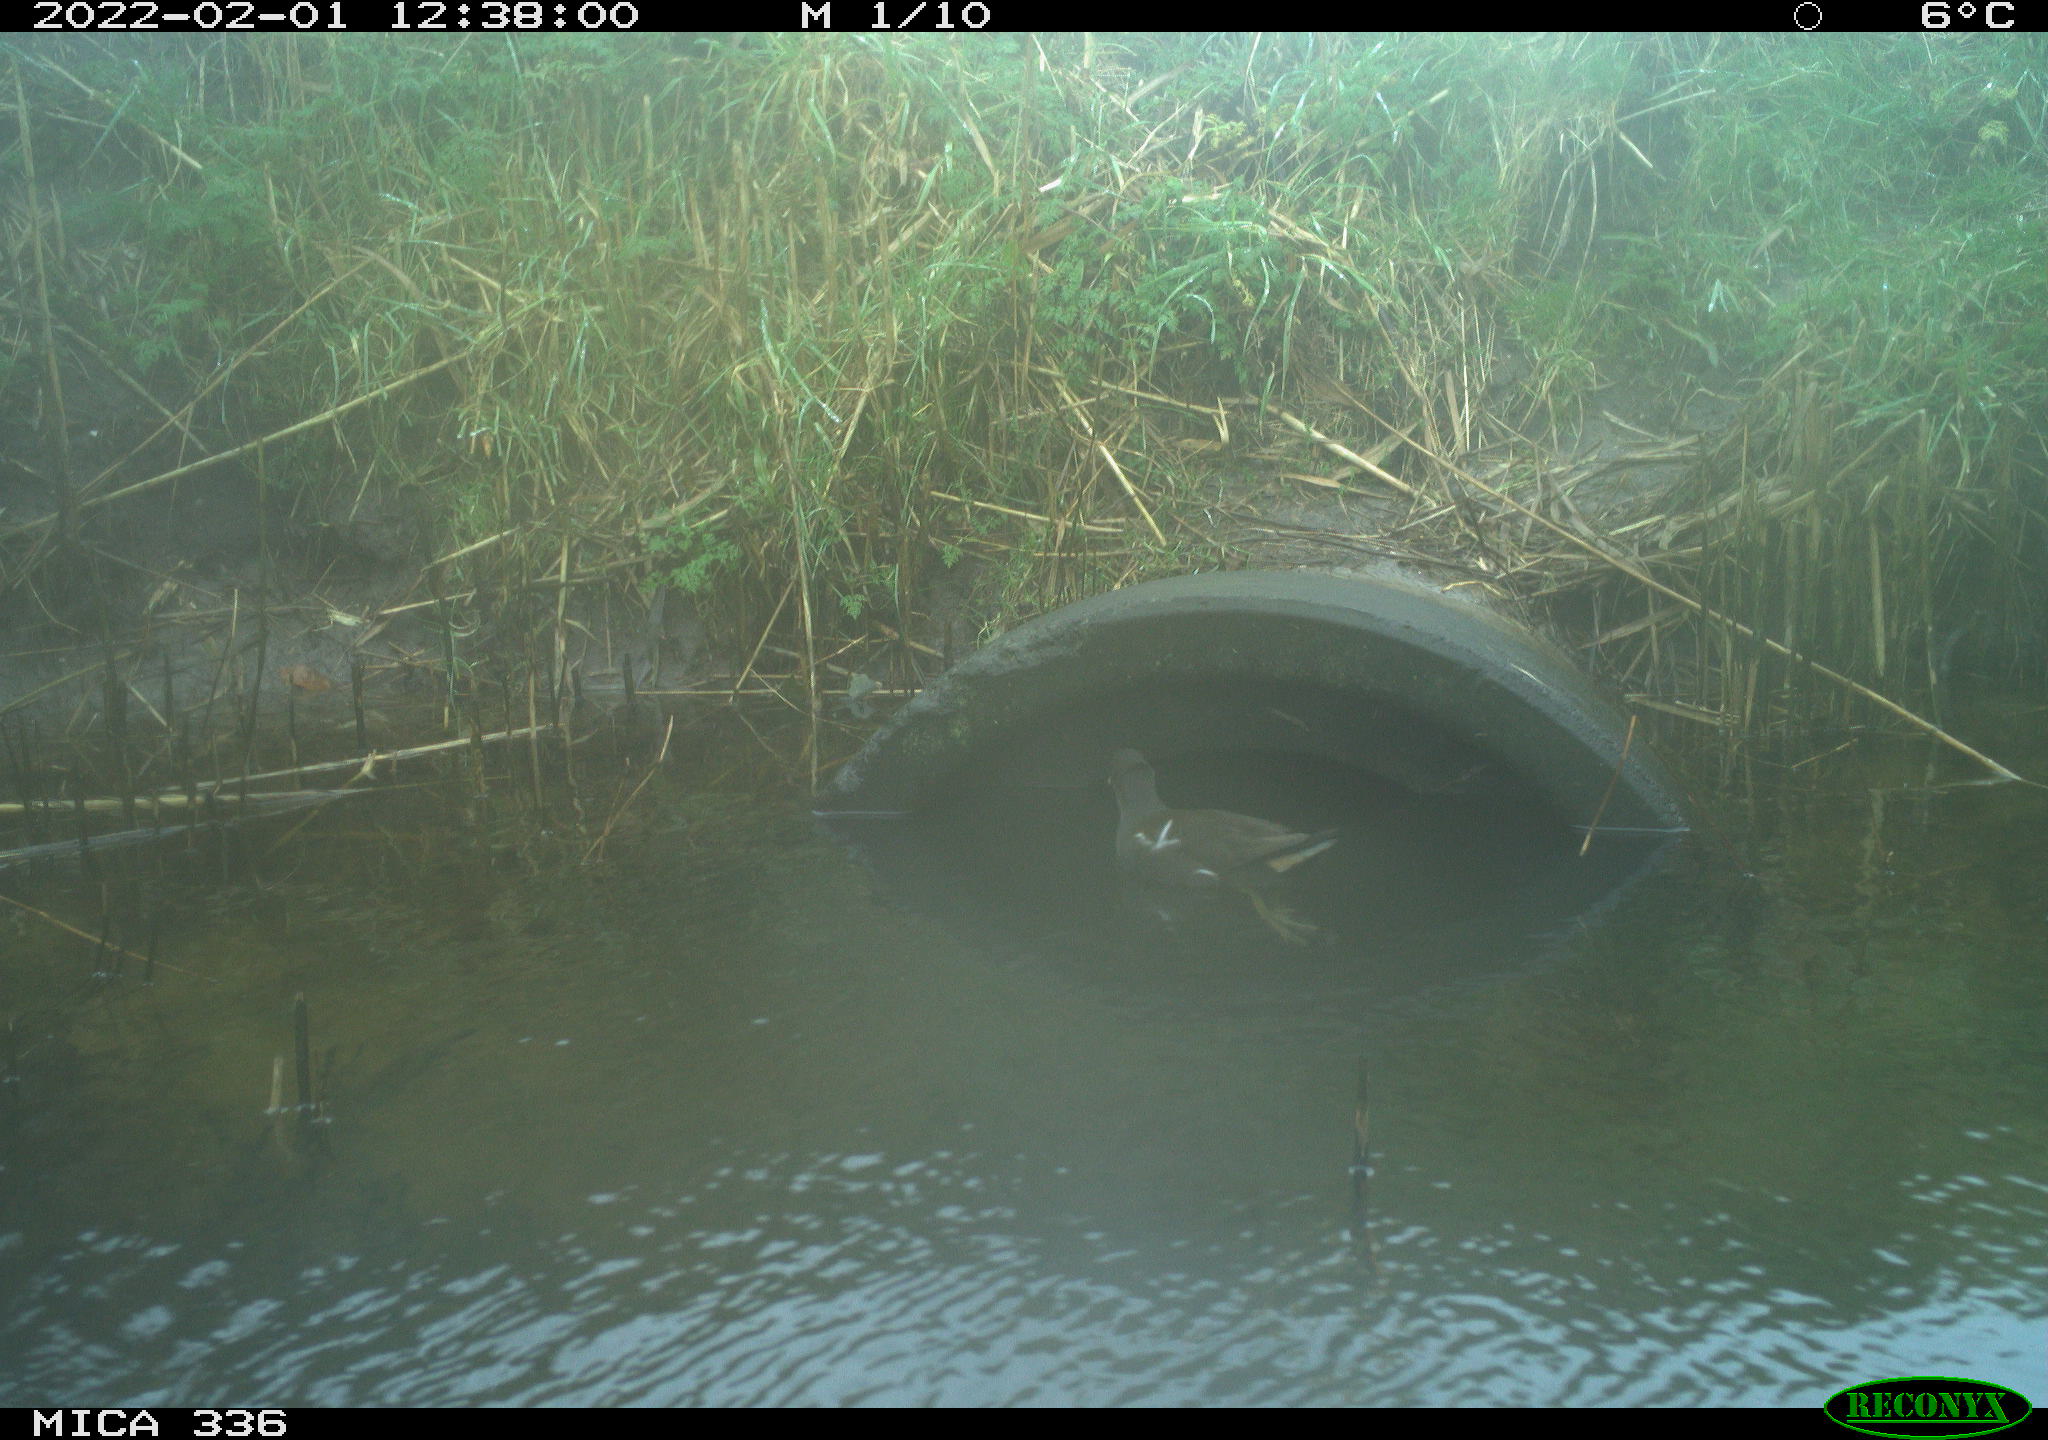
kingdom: Animalia
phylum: Chordata
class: Aves
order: Gruiformes
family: Rallidae
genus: Gallinula
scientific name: Gallinula chloropus
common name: Common moorhen
